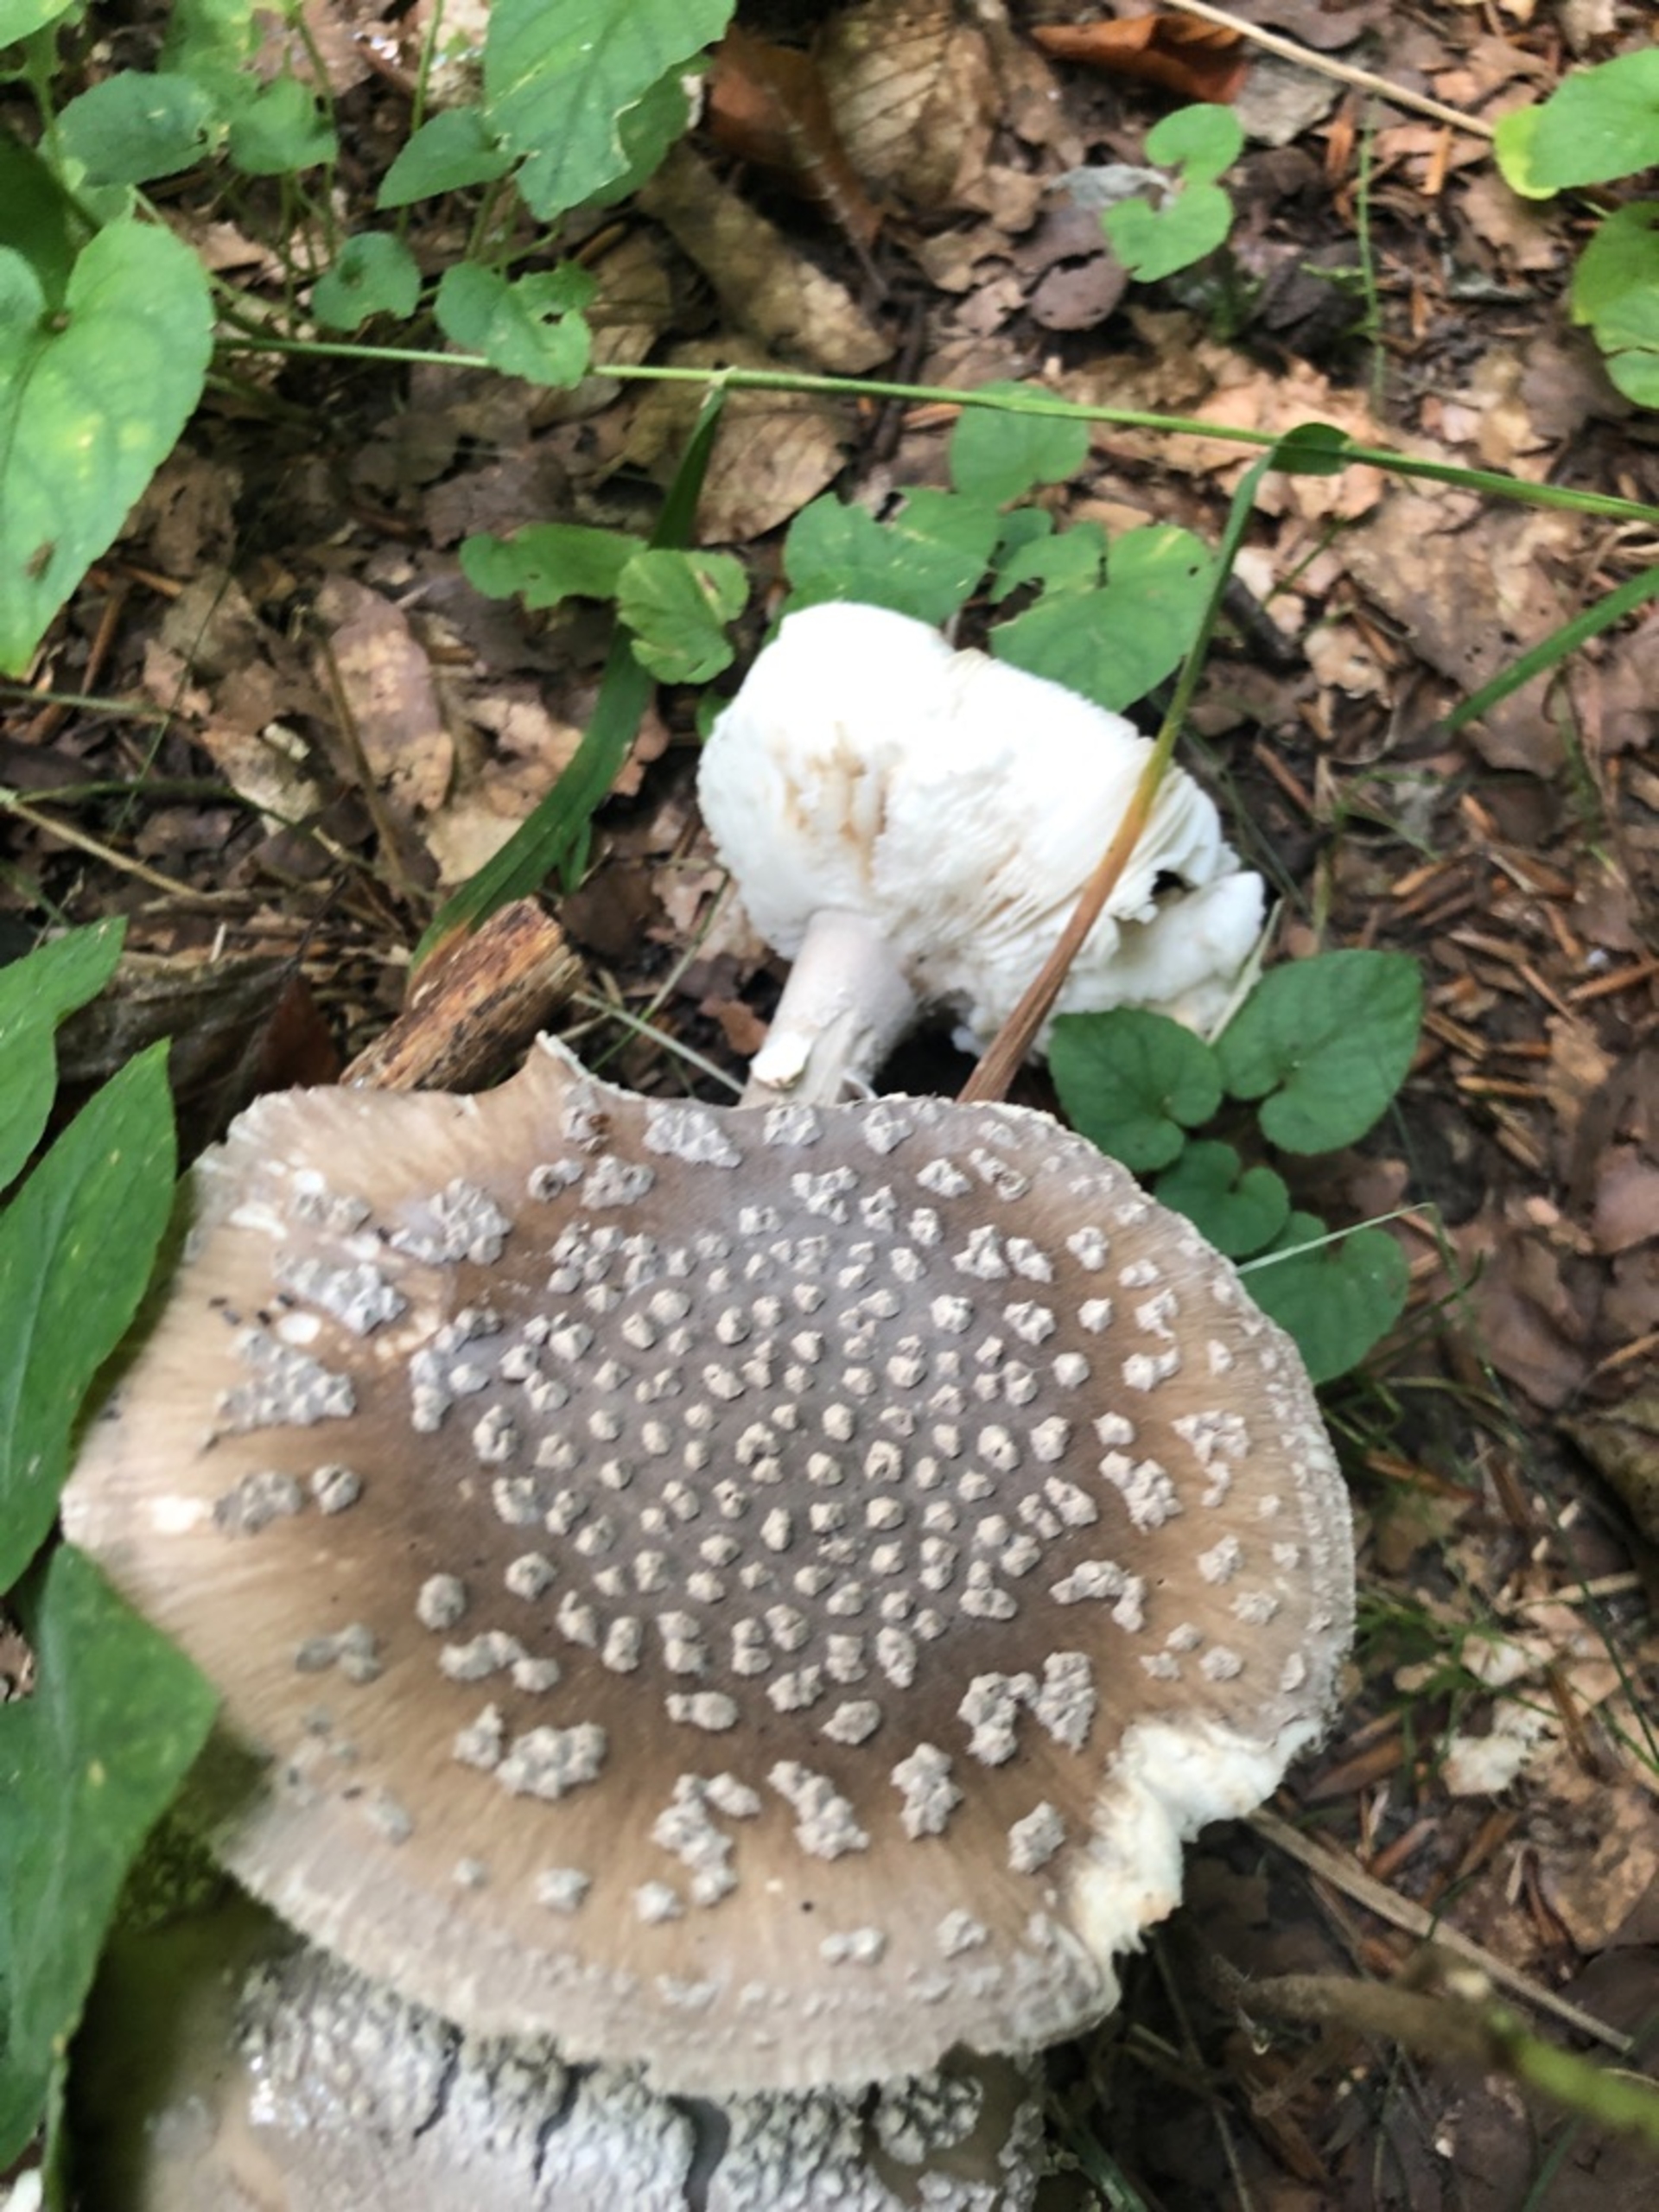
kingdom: Fungi
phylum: Basidiomycota
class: Agaricomycetes
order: Agaricales
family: Amanitaceae
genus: Amanita
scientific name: Amanita
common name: Fluesvamp
